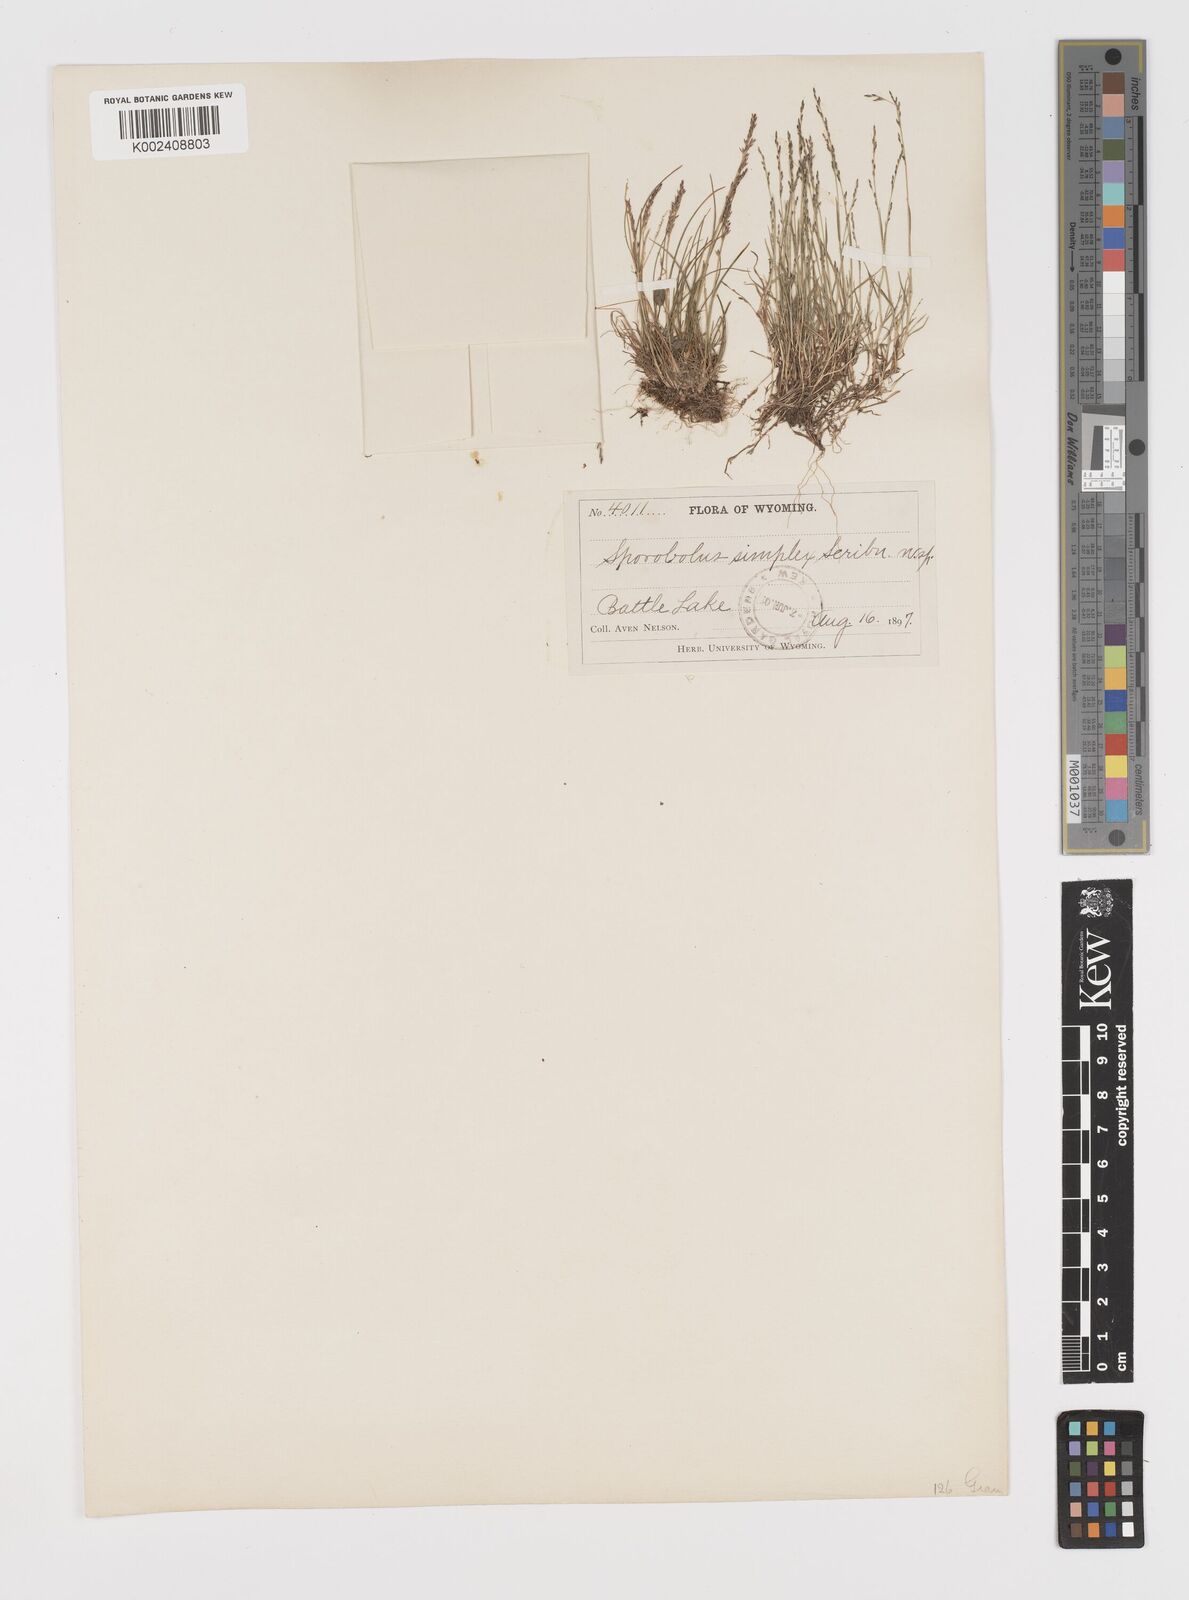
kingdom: Plantae
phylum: Tracheophyta
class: Liliopsida
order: Poales
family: Poaceae
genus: Leptochloa
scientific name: Leptochloa mucronata
